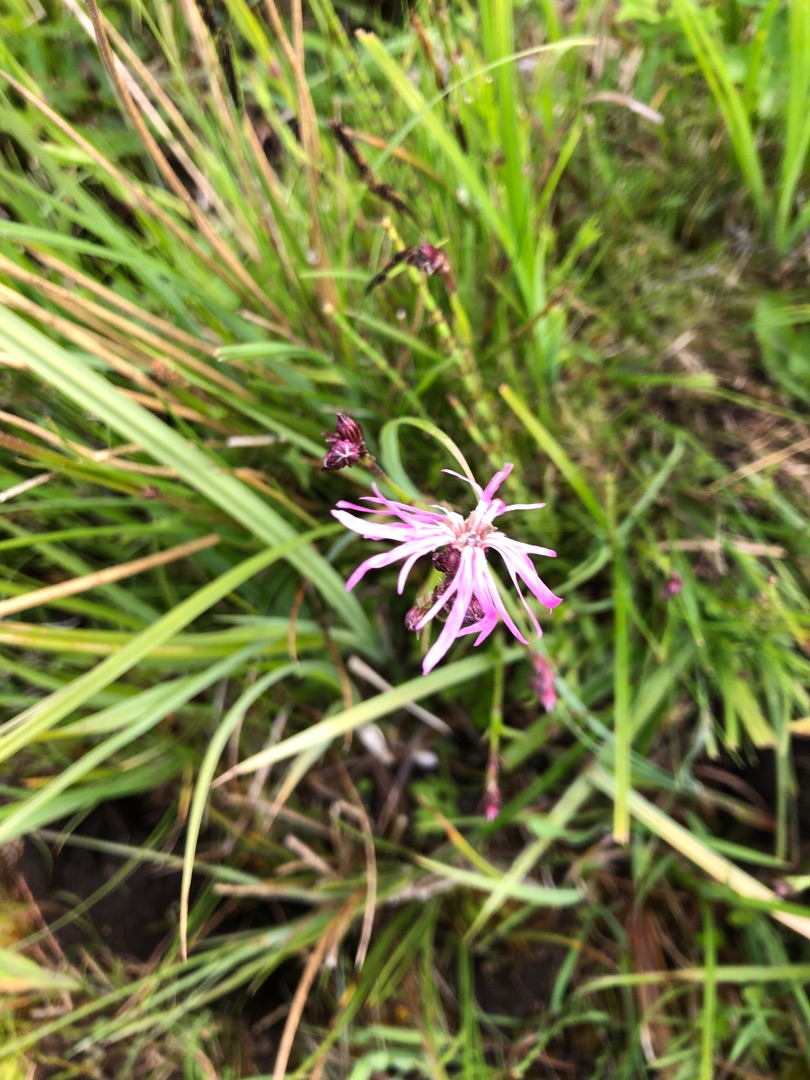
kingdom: Plantae
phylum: Tracheophyta
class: Magnoliopsida
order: Caryophyllales
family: Caryophyllaceae
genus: Silene
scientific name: Silene flos-cuculi
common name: Trævlekrone
